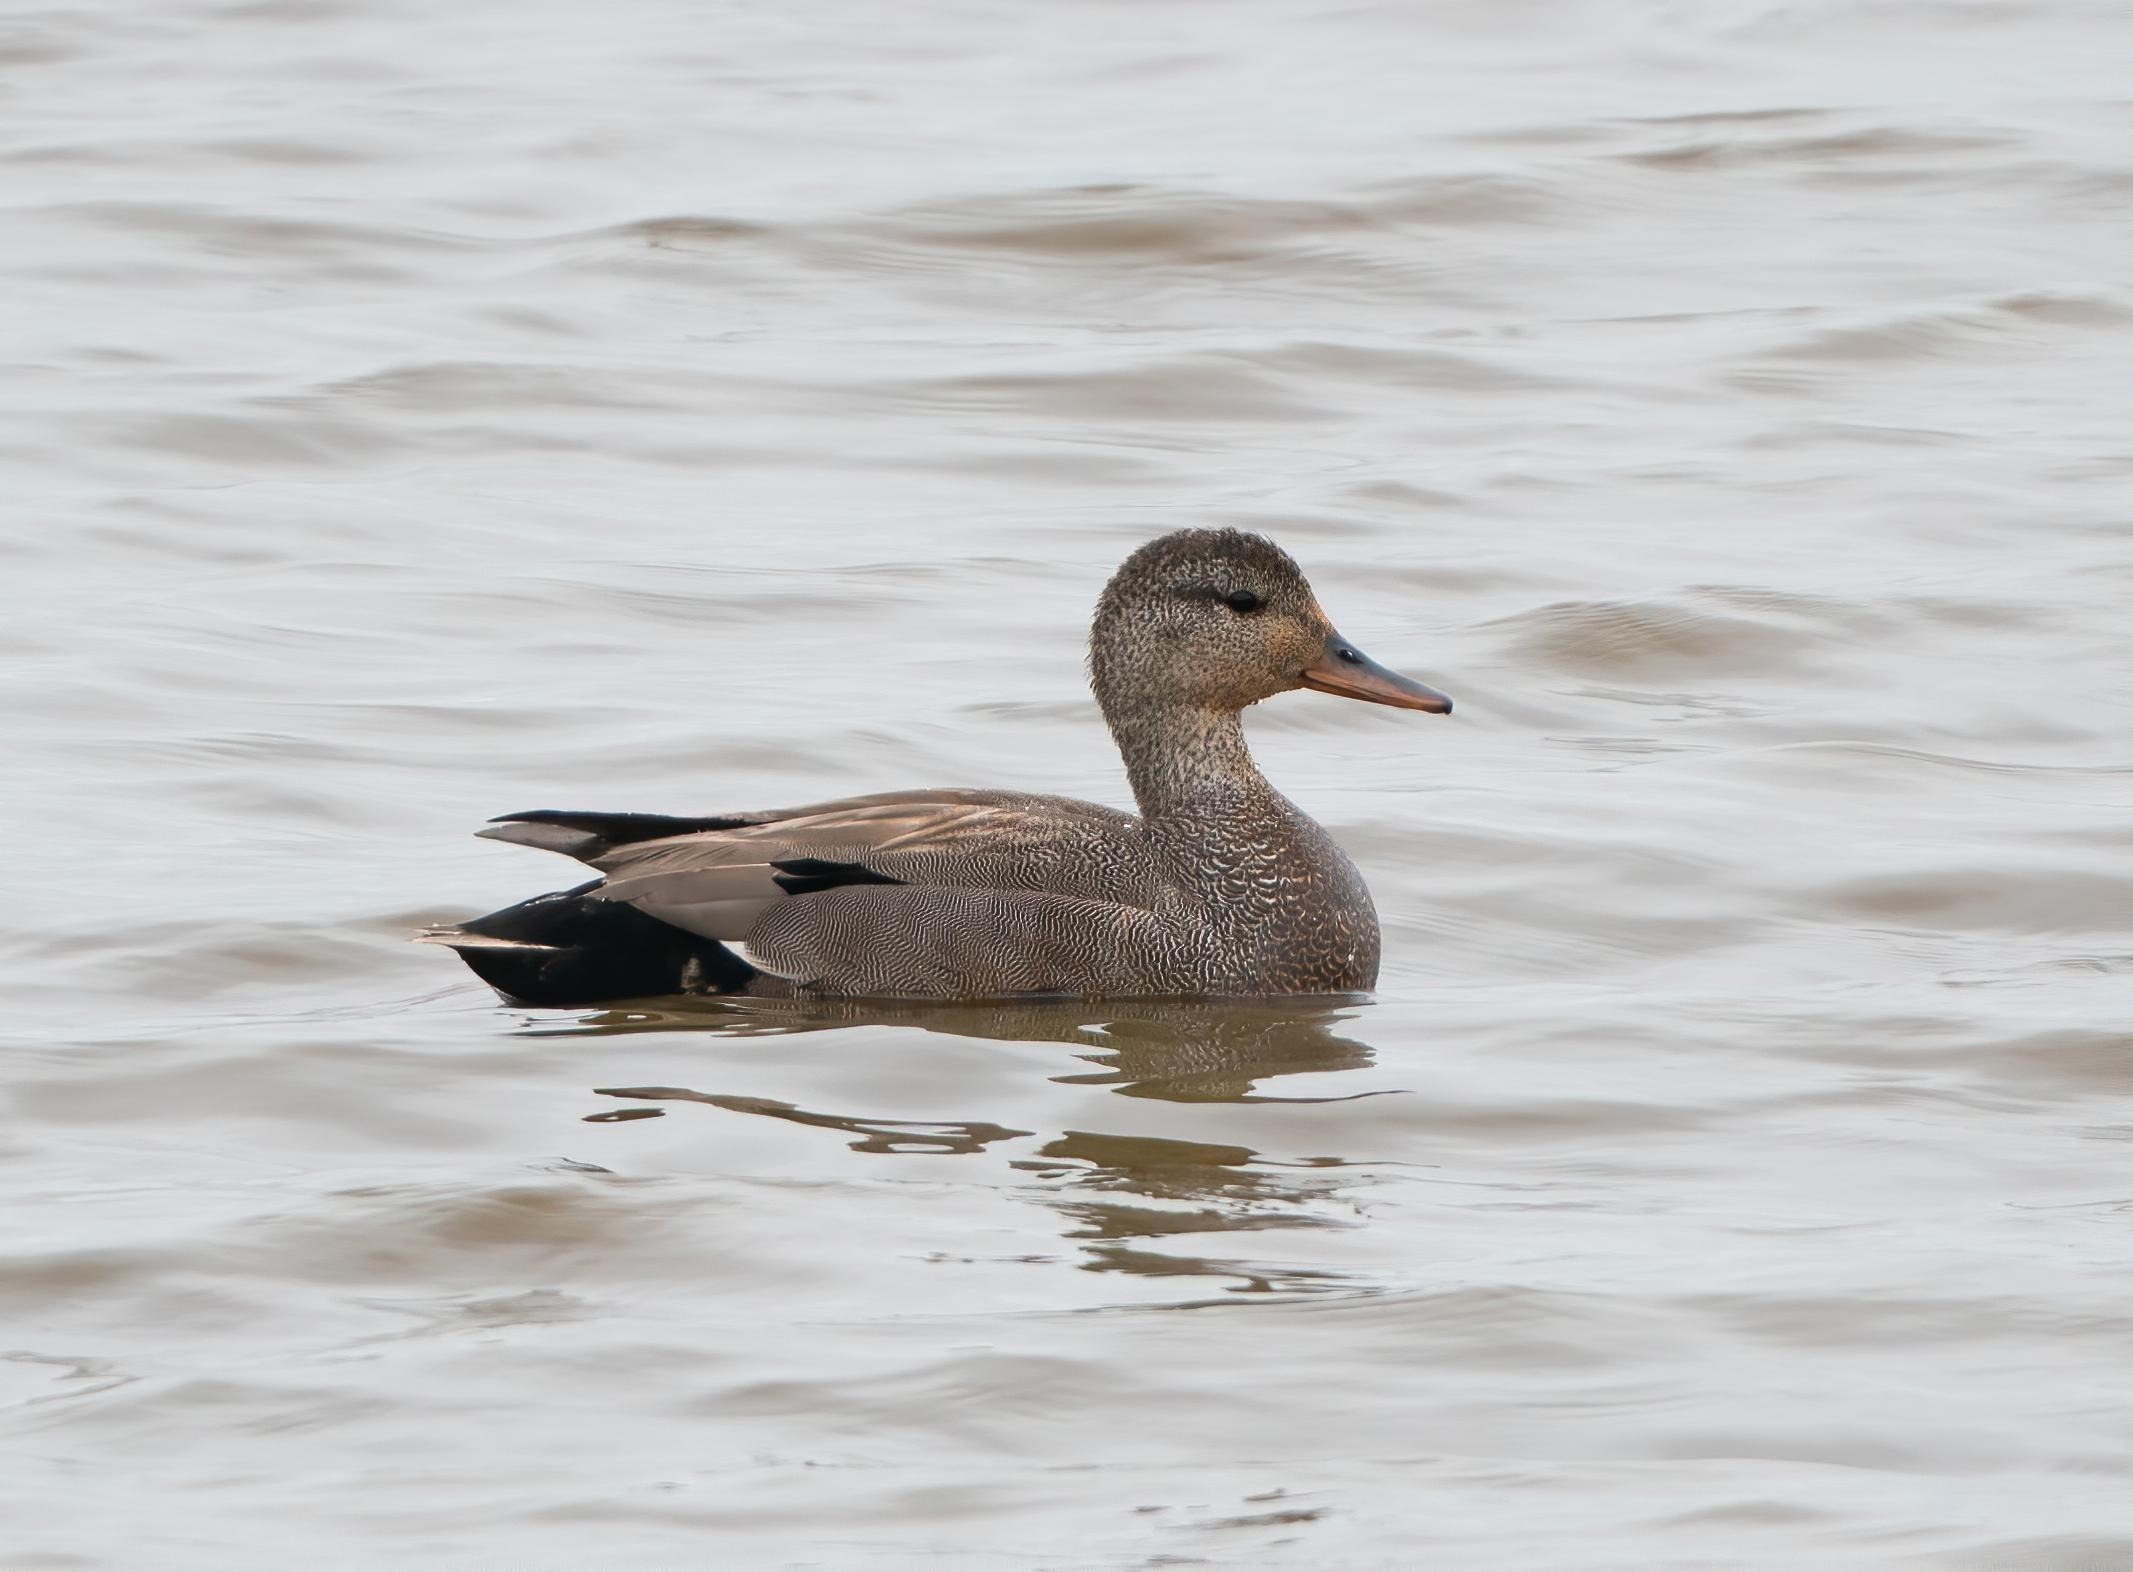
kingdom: Animalia
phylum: Chordata
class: Aves
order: Anseriformes
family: Anatidae
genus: Mareca
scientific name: Mareca strepera
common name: Knarand
